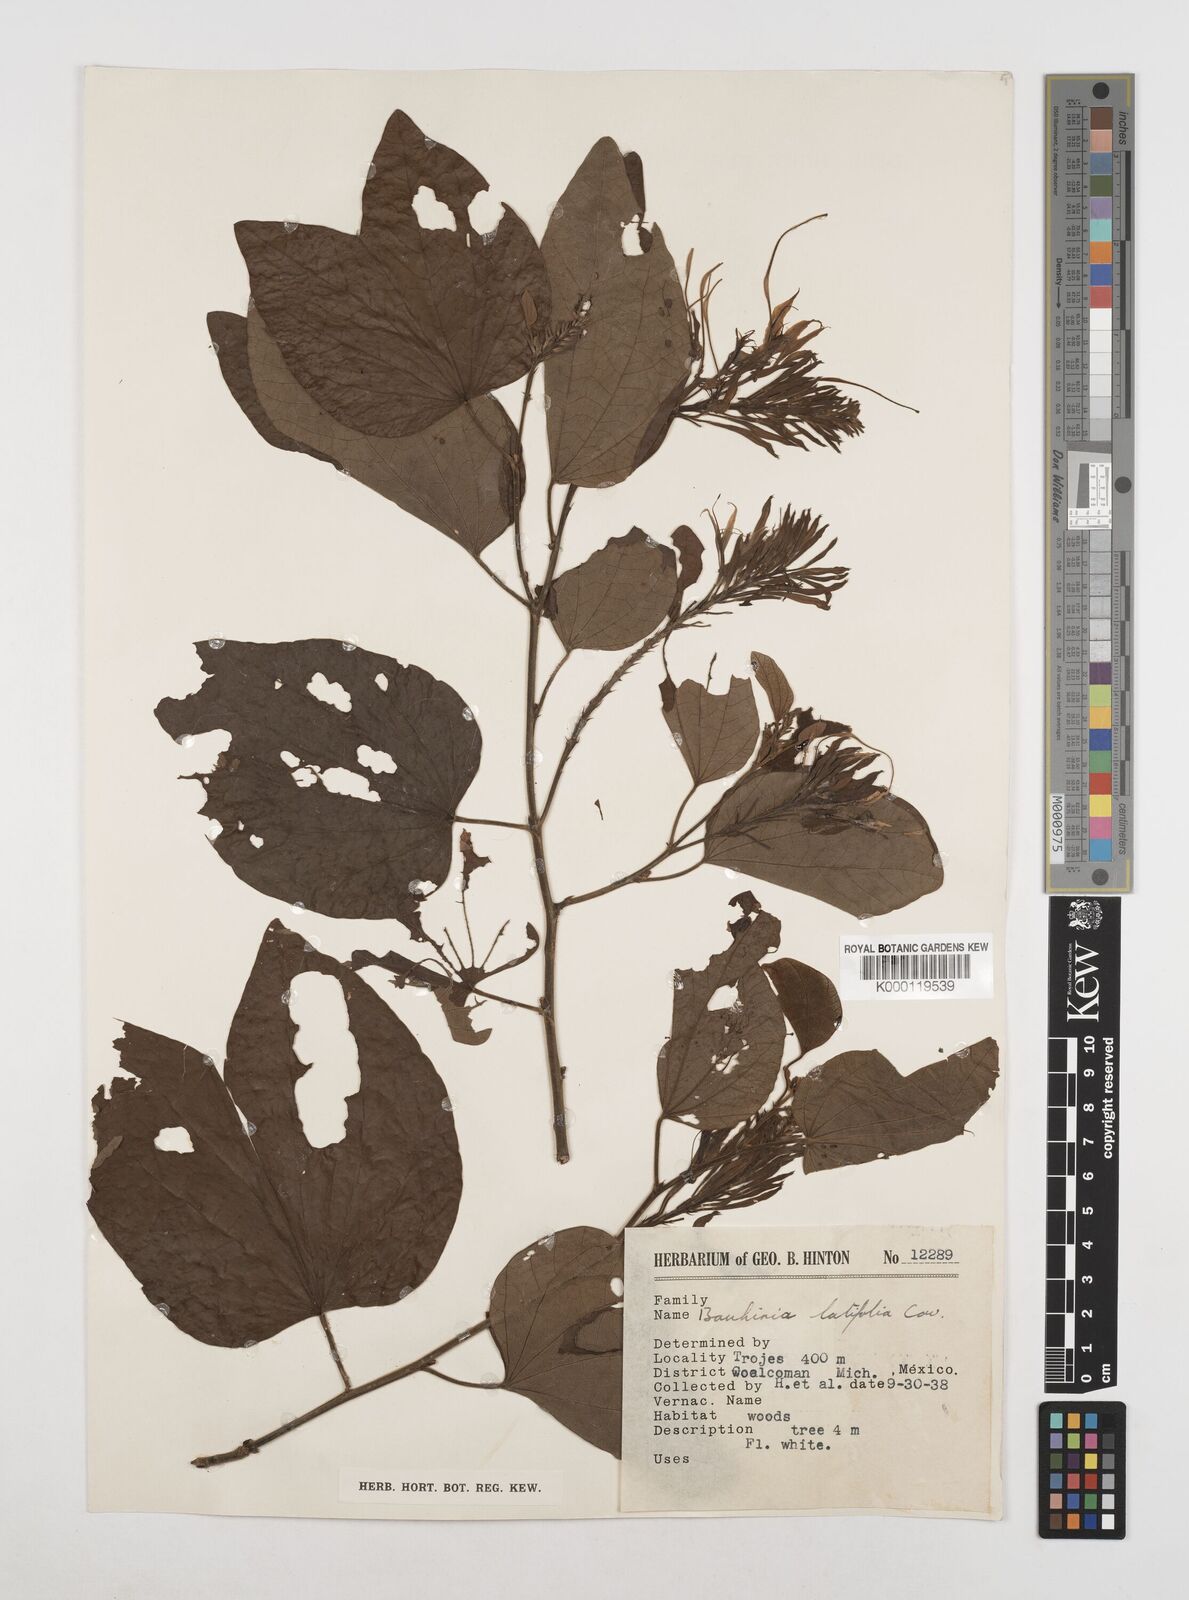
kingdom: Plantae
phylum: Tracheophyta
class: Magnoliopsida
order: Fabales
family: Fabaceae
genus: Bauhinia
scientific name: Bauhinia divaricata
